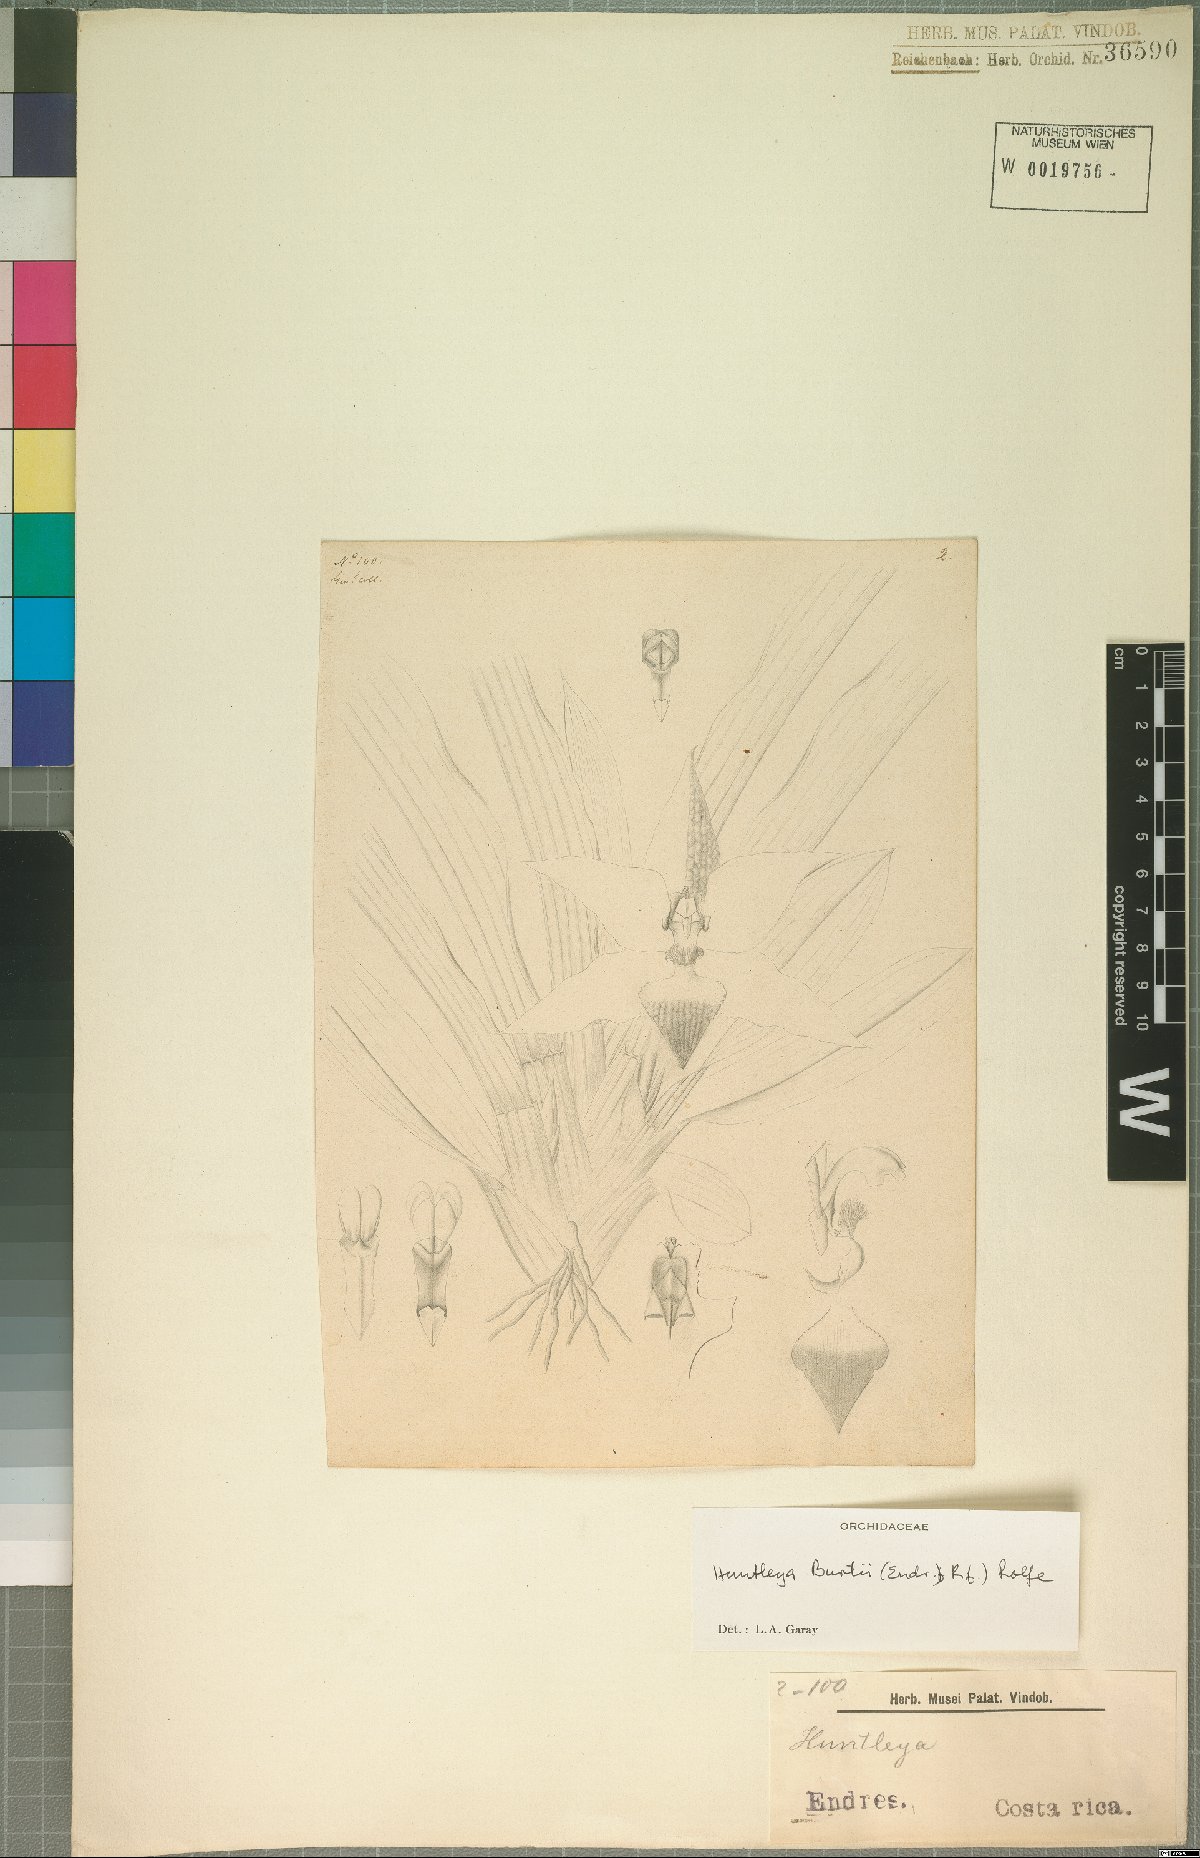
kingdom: Plantae
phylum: Tracheophyta
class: Liliopsida
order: Asparagales
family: Orchidaceae
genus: Huntleya
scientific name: Huntleya burtii
